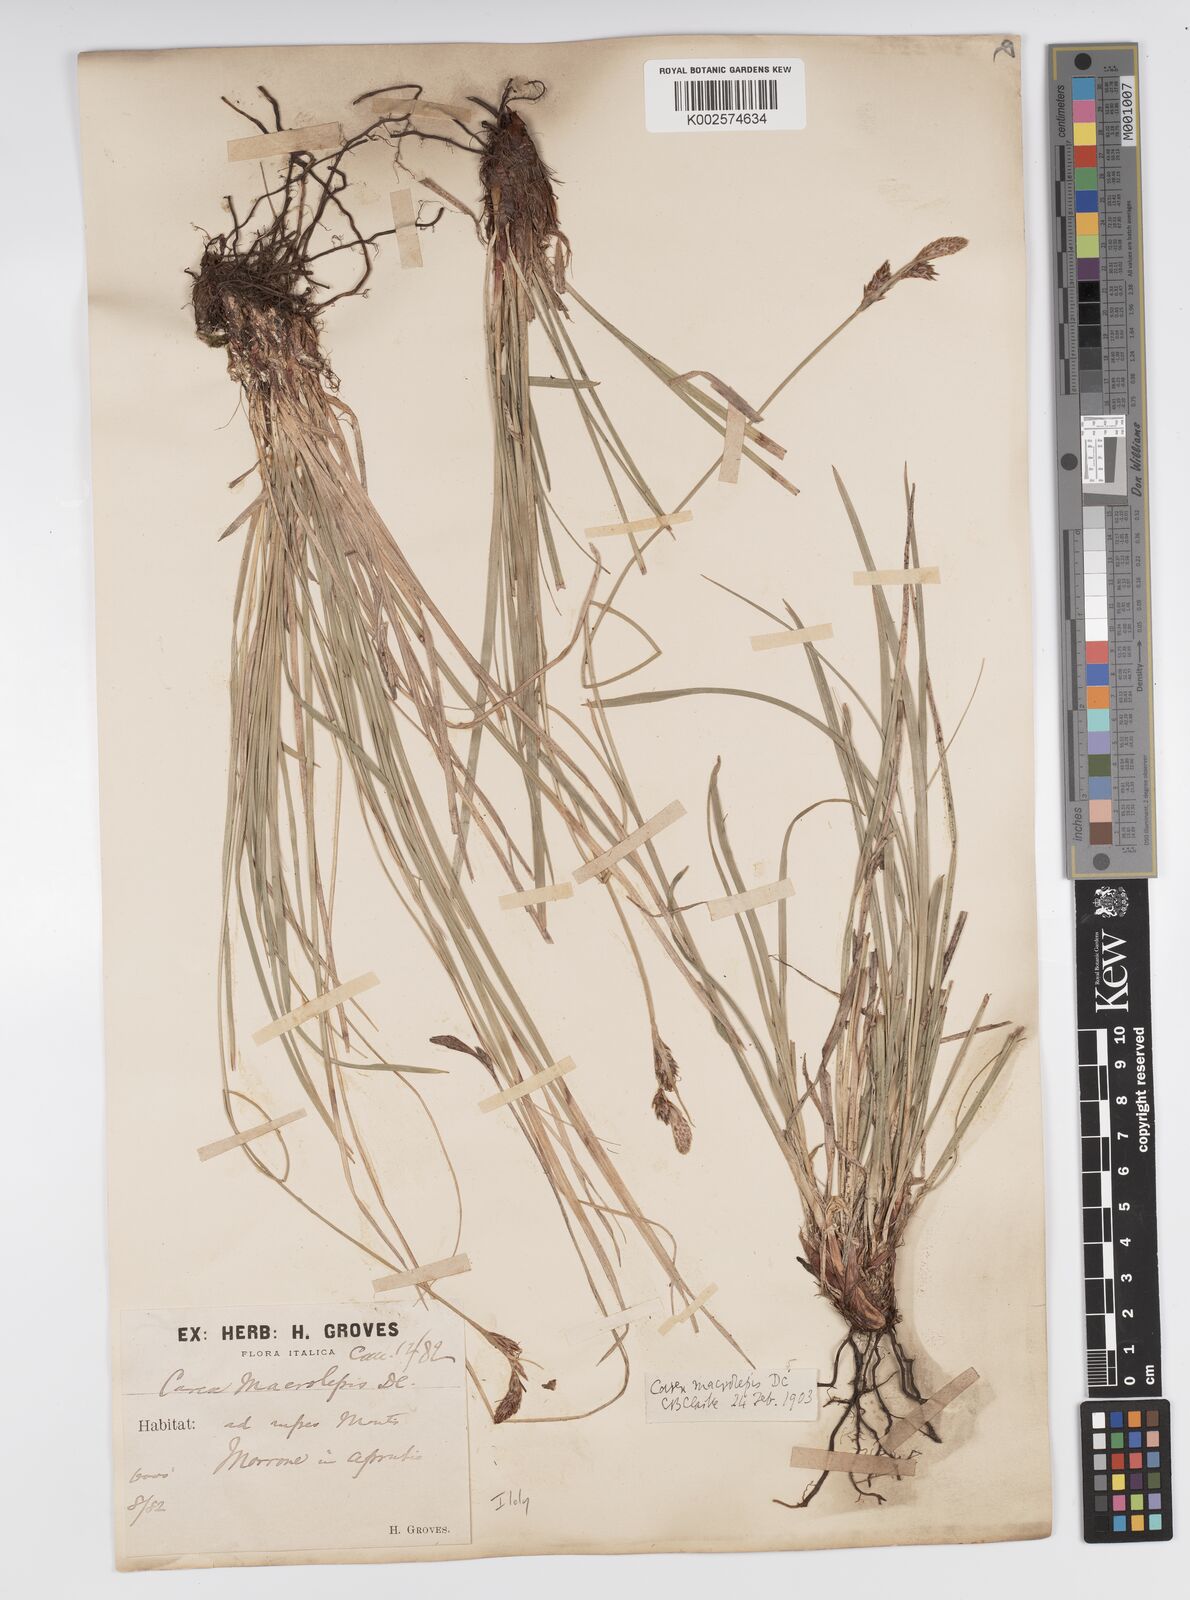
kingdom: Plantae
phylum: Tracheophyta
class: Liliopsida
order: Poales
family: Cyperaceae
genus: Carex
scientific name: Carex macrolepis
